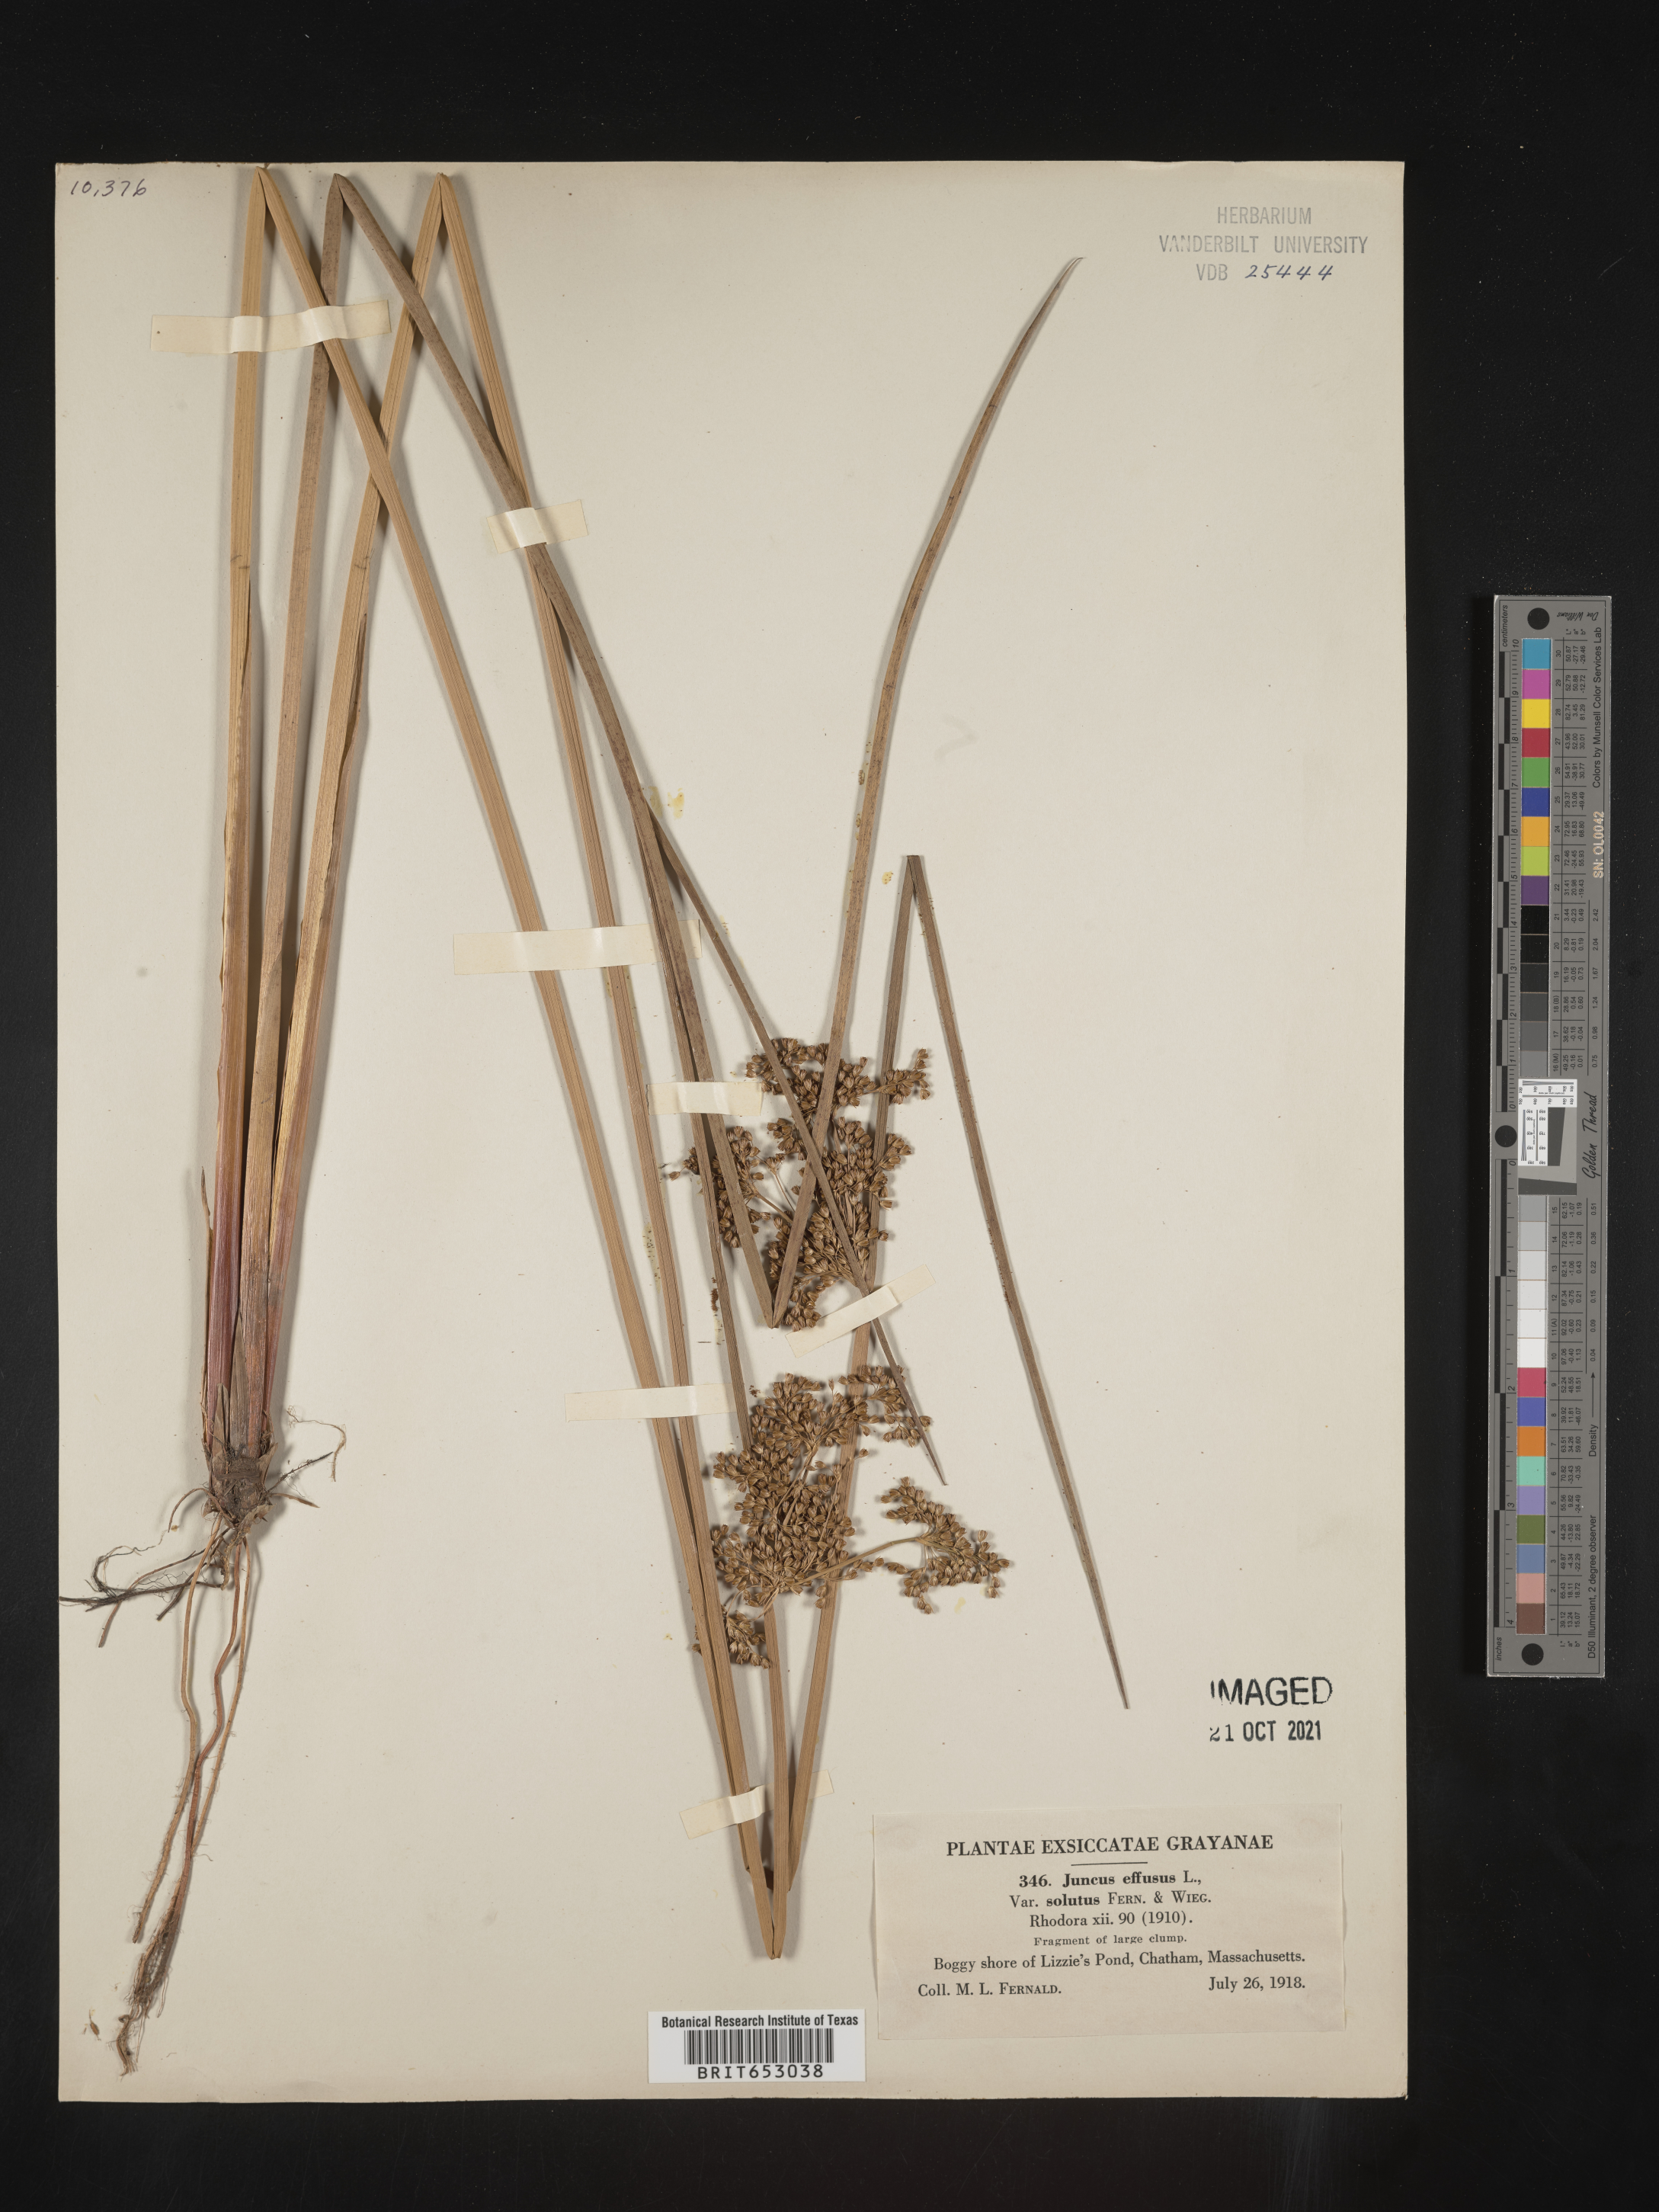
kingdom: Plantae
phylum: Tracheophyta
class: Liliopsida
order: Poales
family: Juncaceae
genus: Juncus
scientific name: Juncus effusus
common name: Soft rush
